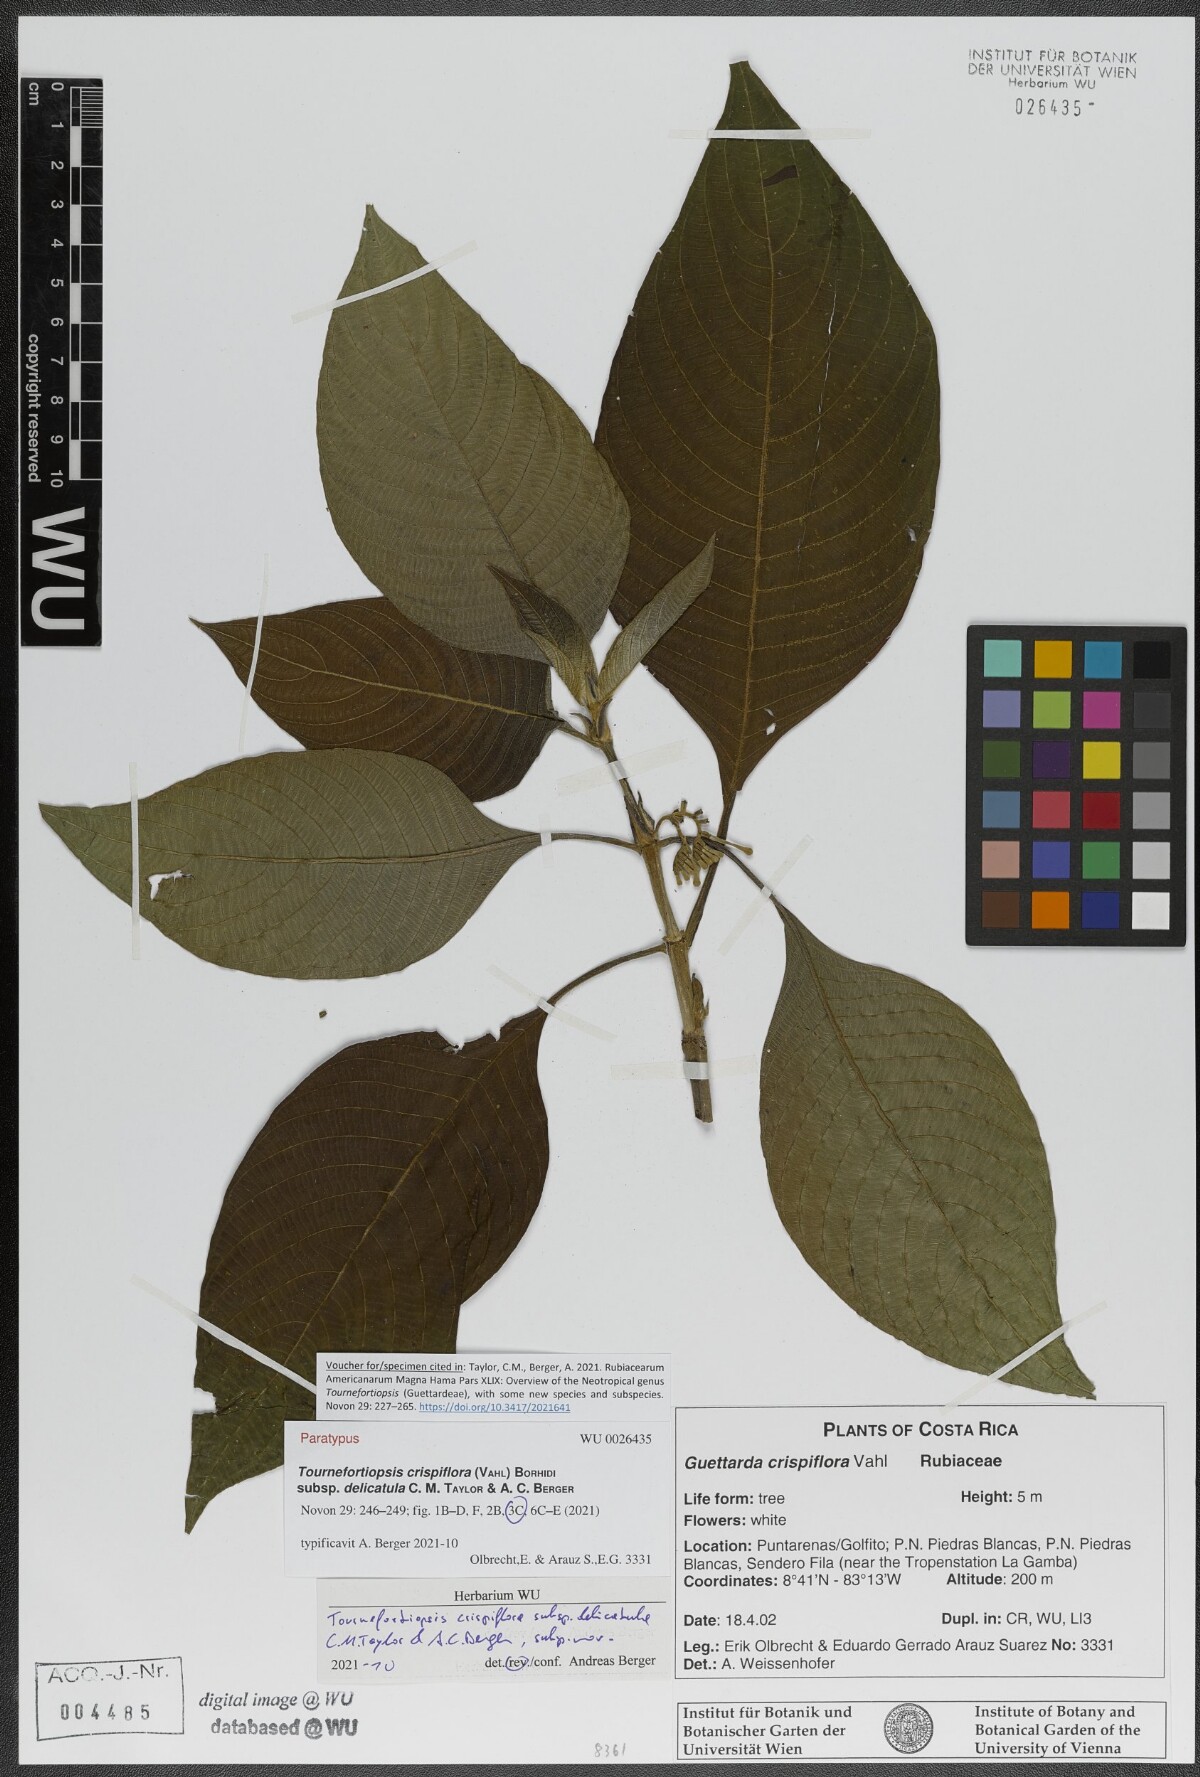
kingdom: Plantae
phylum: Tracheophyta
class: Magnoliopsida
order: Gentianales
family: Rubiaceae
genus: Tournefortiopsis
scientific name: Tournefortiopsis crispiflora
